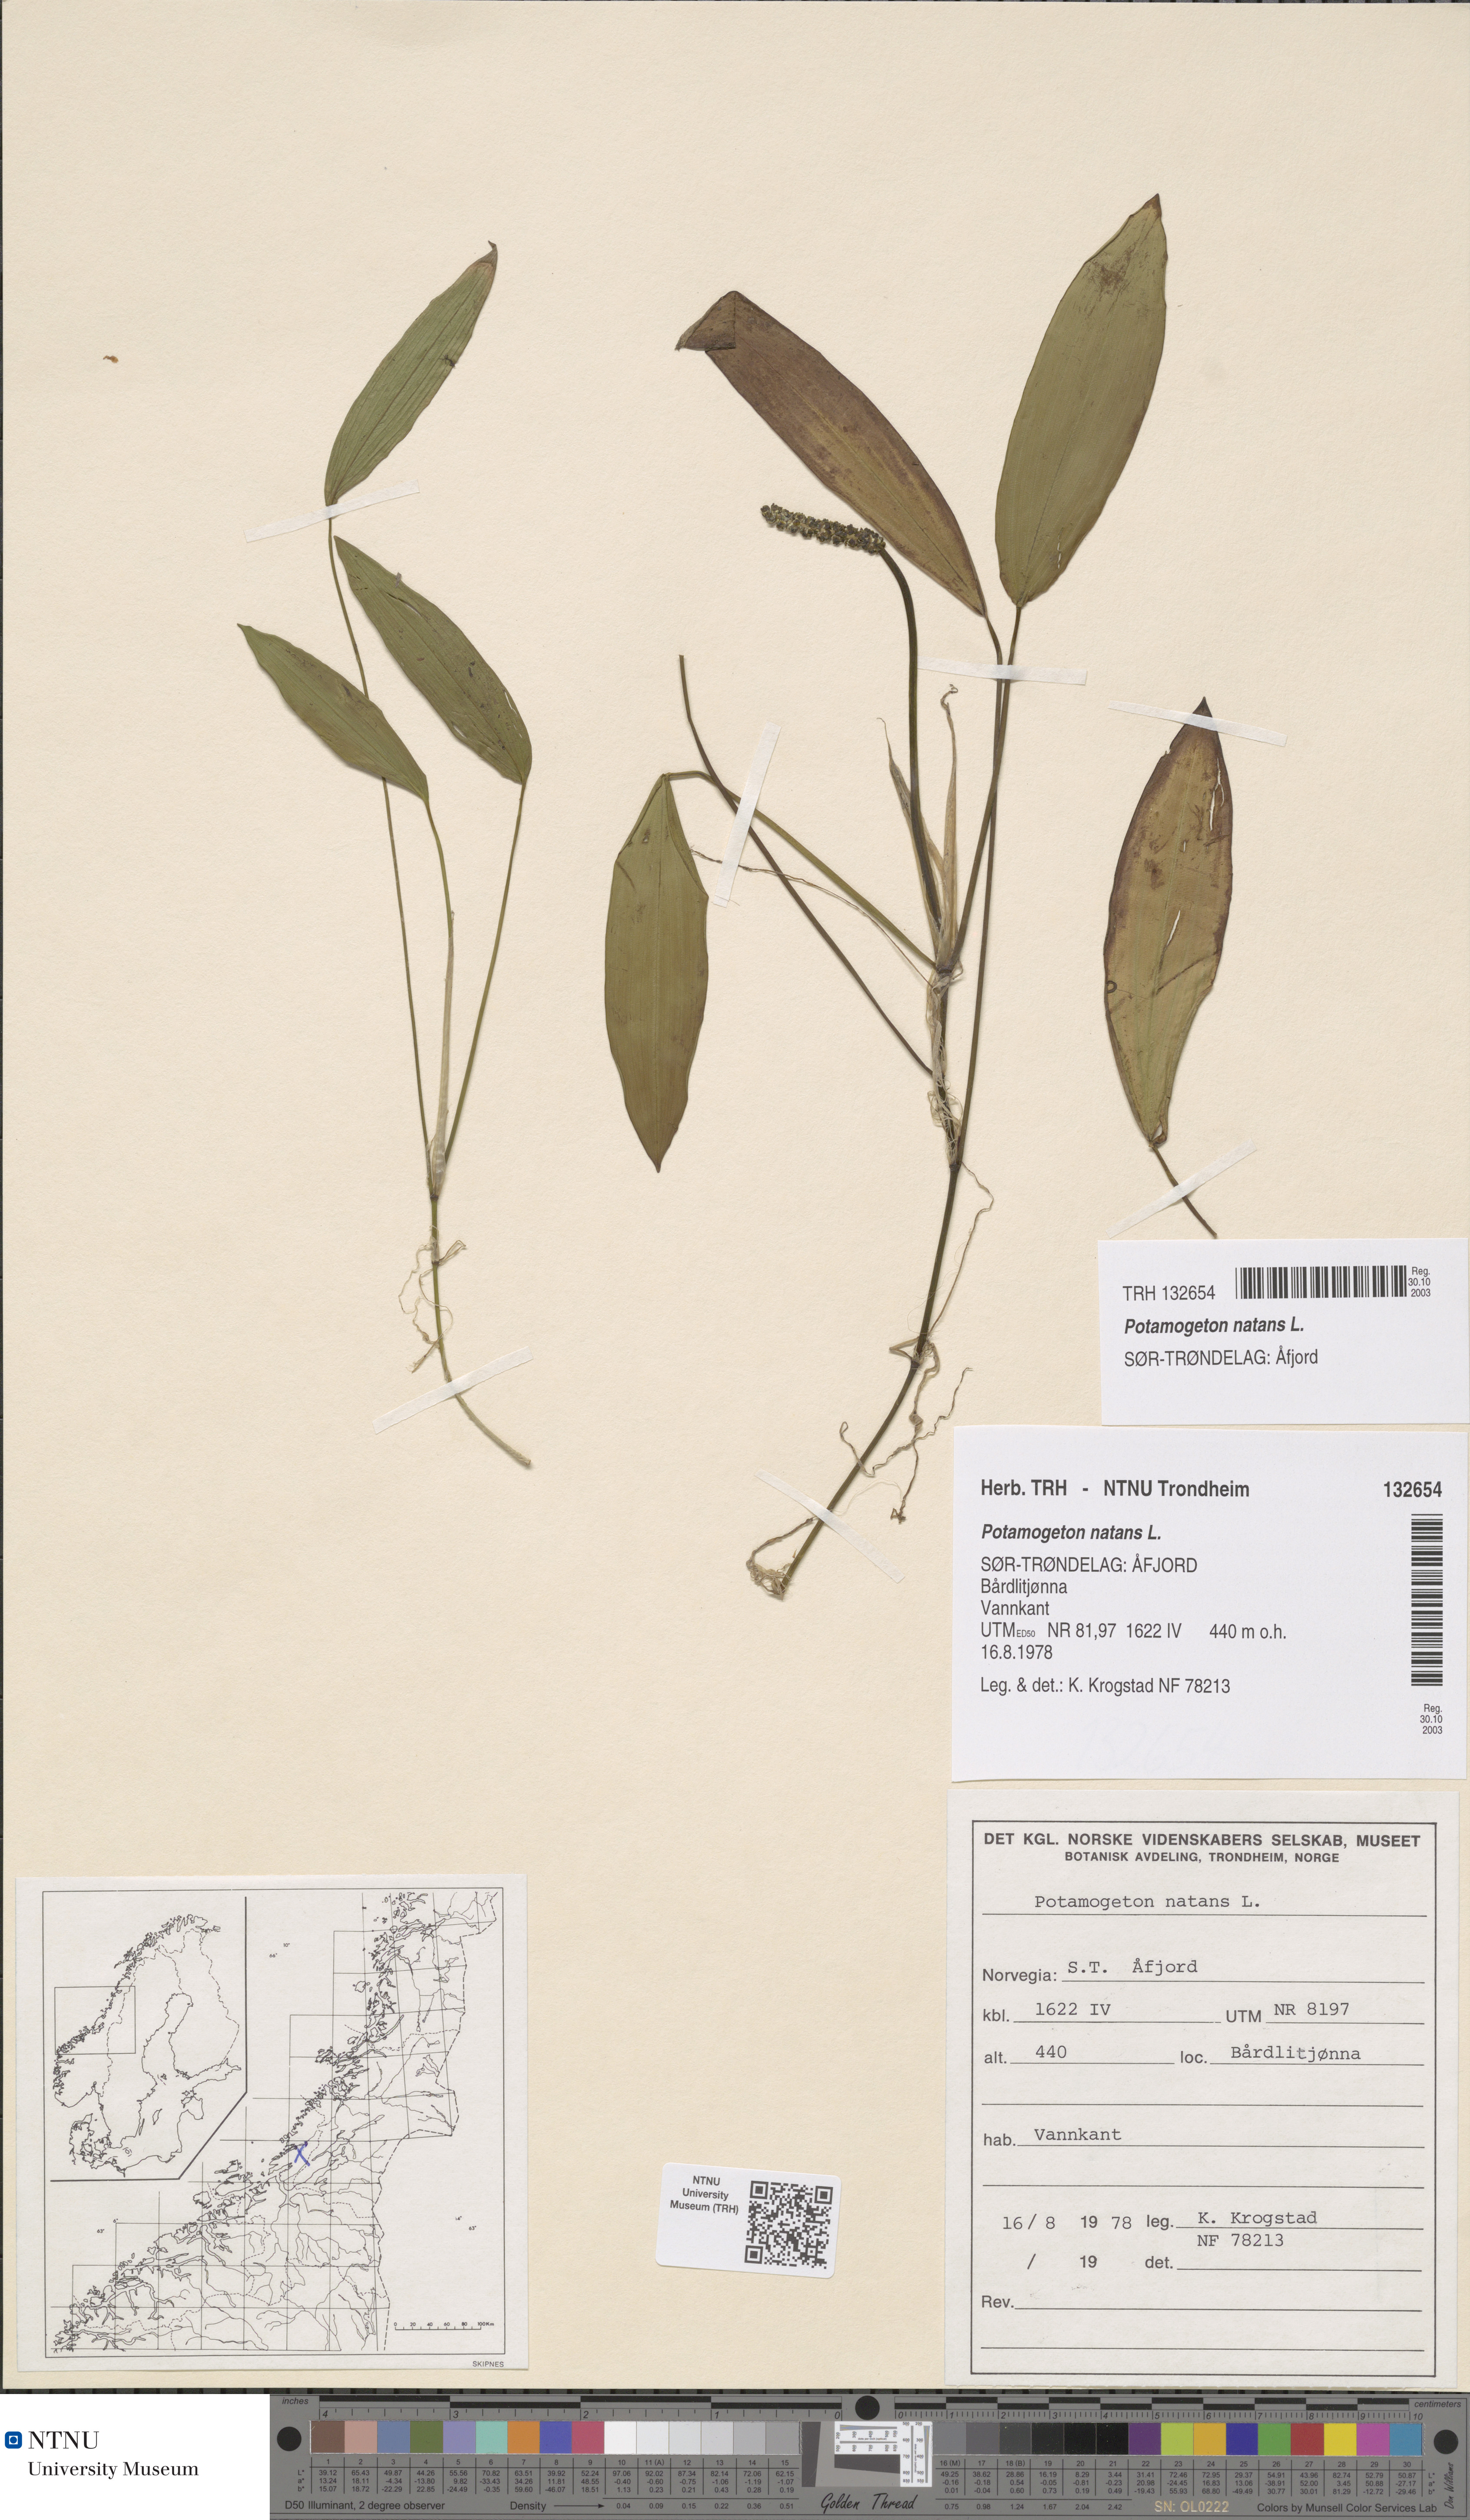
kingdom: Plantae
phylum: Tracheophyta
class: Liliopsida
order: Alismatales
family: Potamogetonaceae
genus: Potamogeton
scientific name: Potamogeton natans
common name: Broad-leaved pondweed
